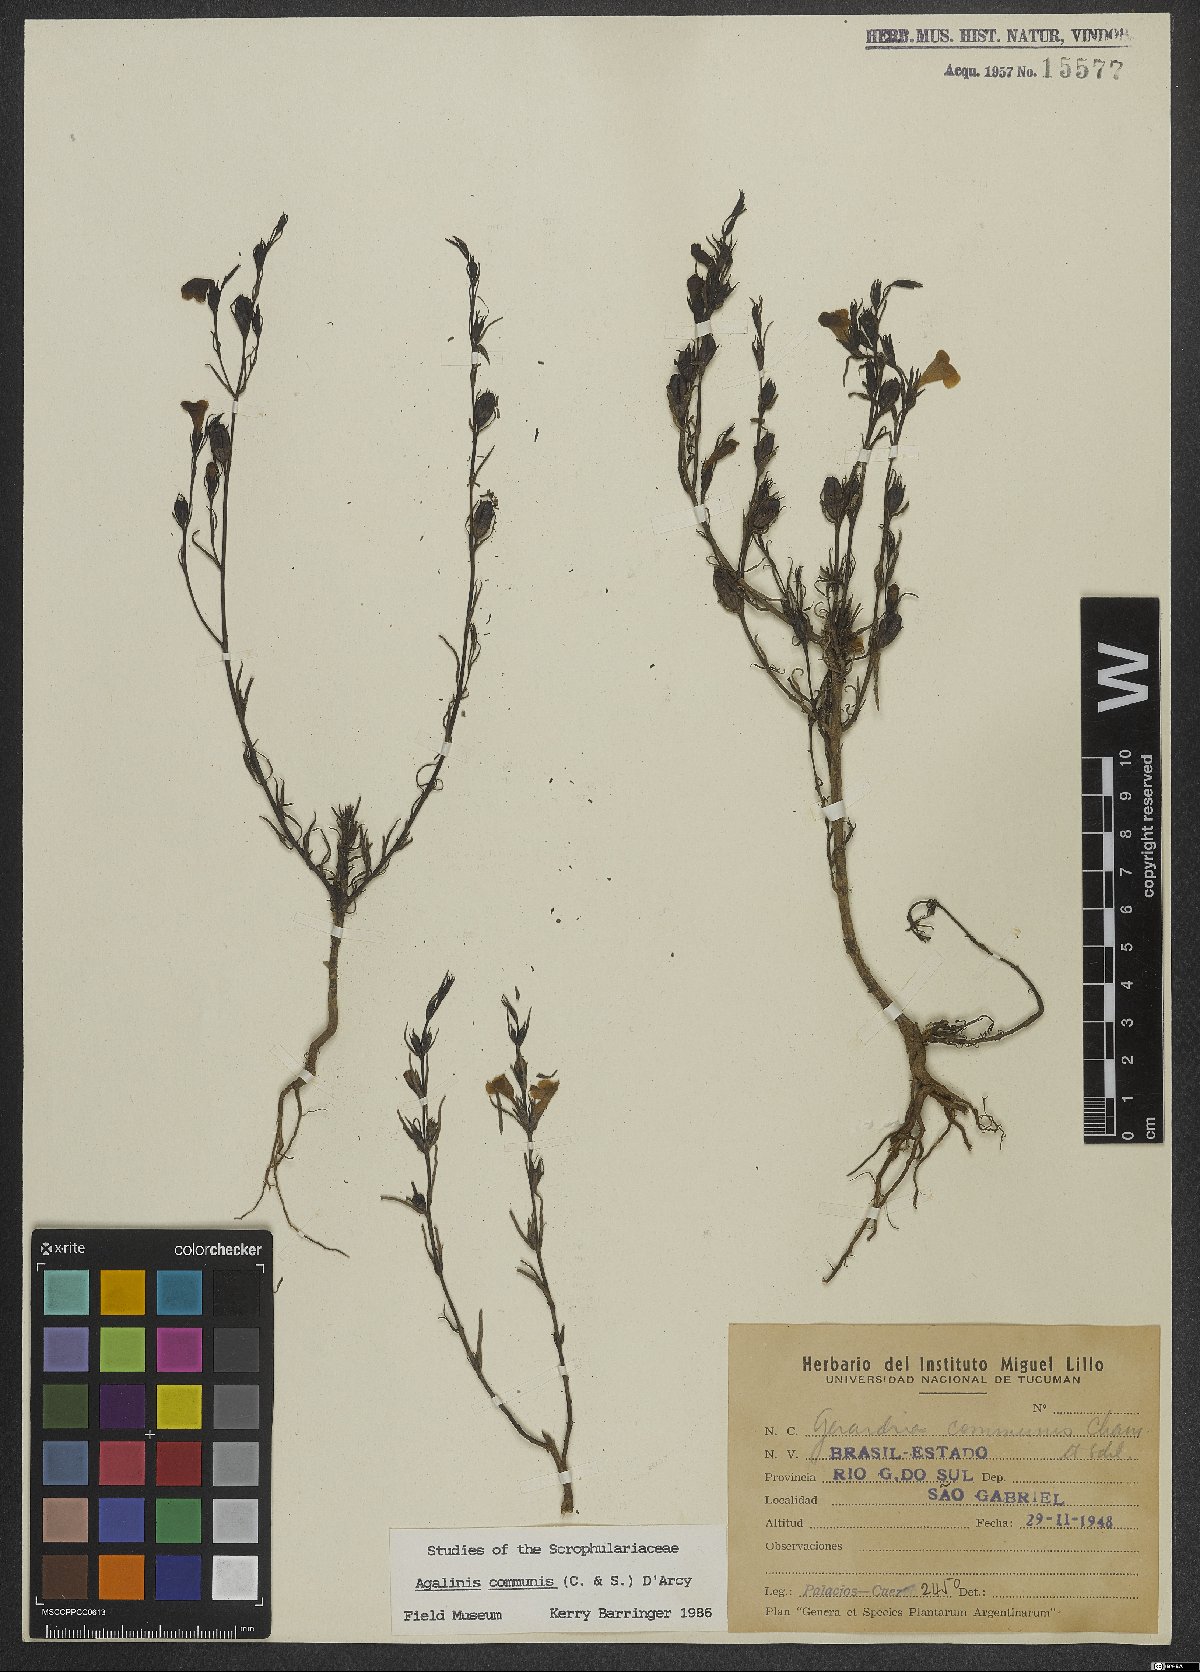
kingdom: Plantae
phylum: Tracheophyta
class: Magnoliopsida
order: Lamiales
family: Scrophulariaceae
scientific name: Scrophulariaceae
